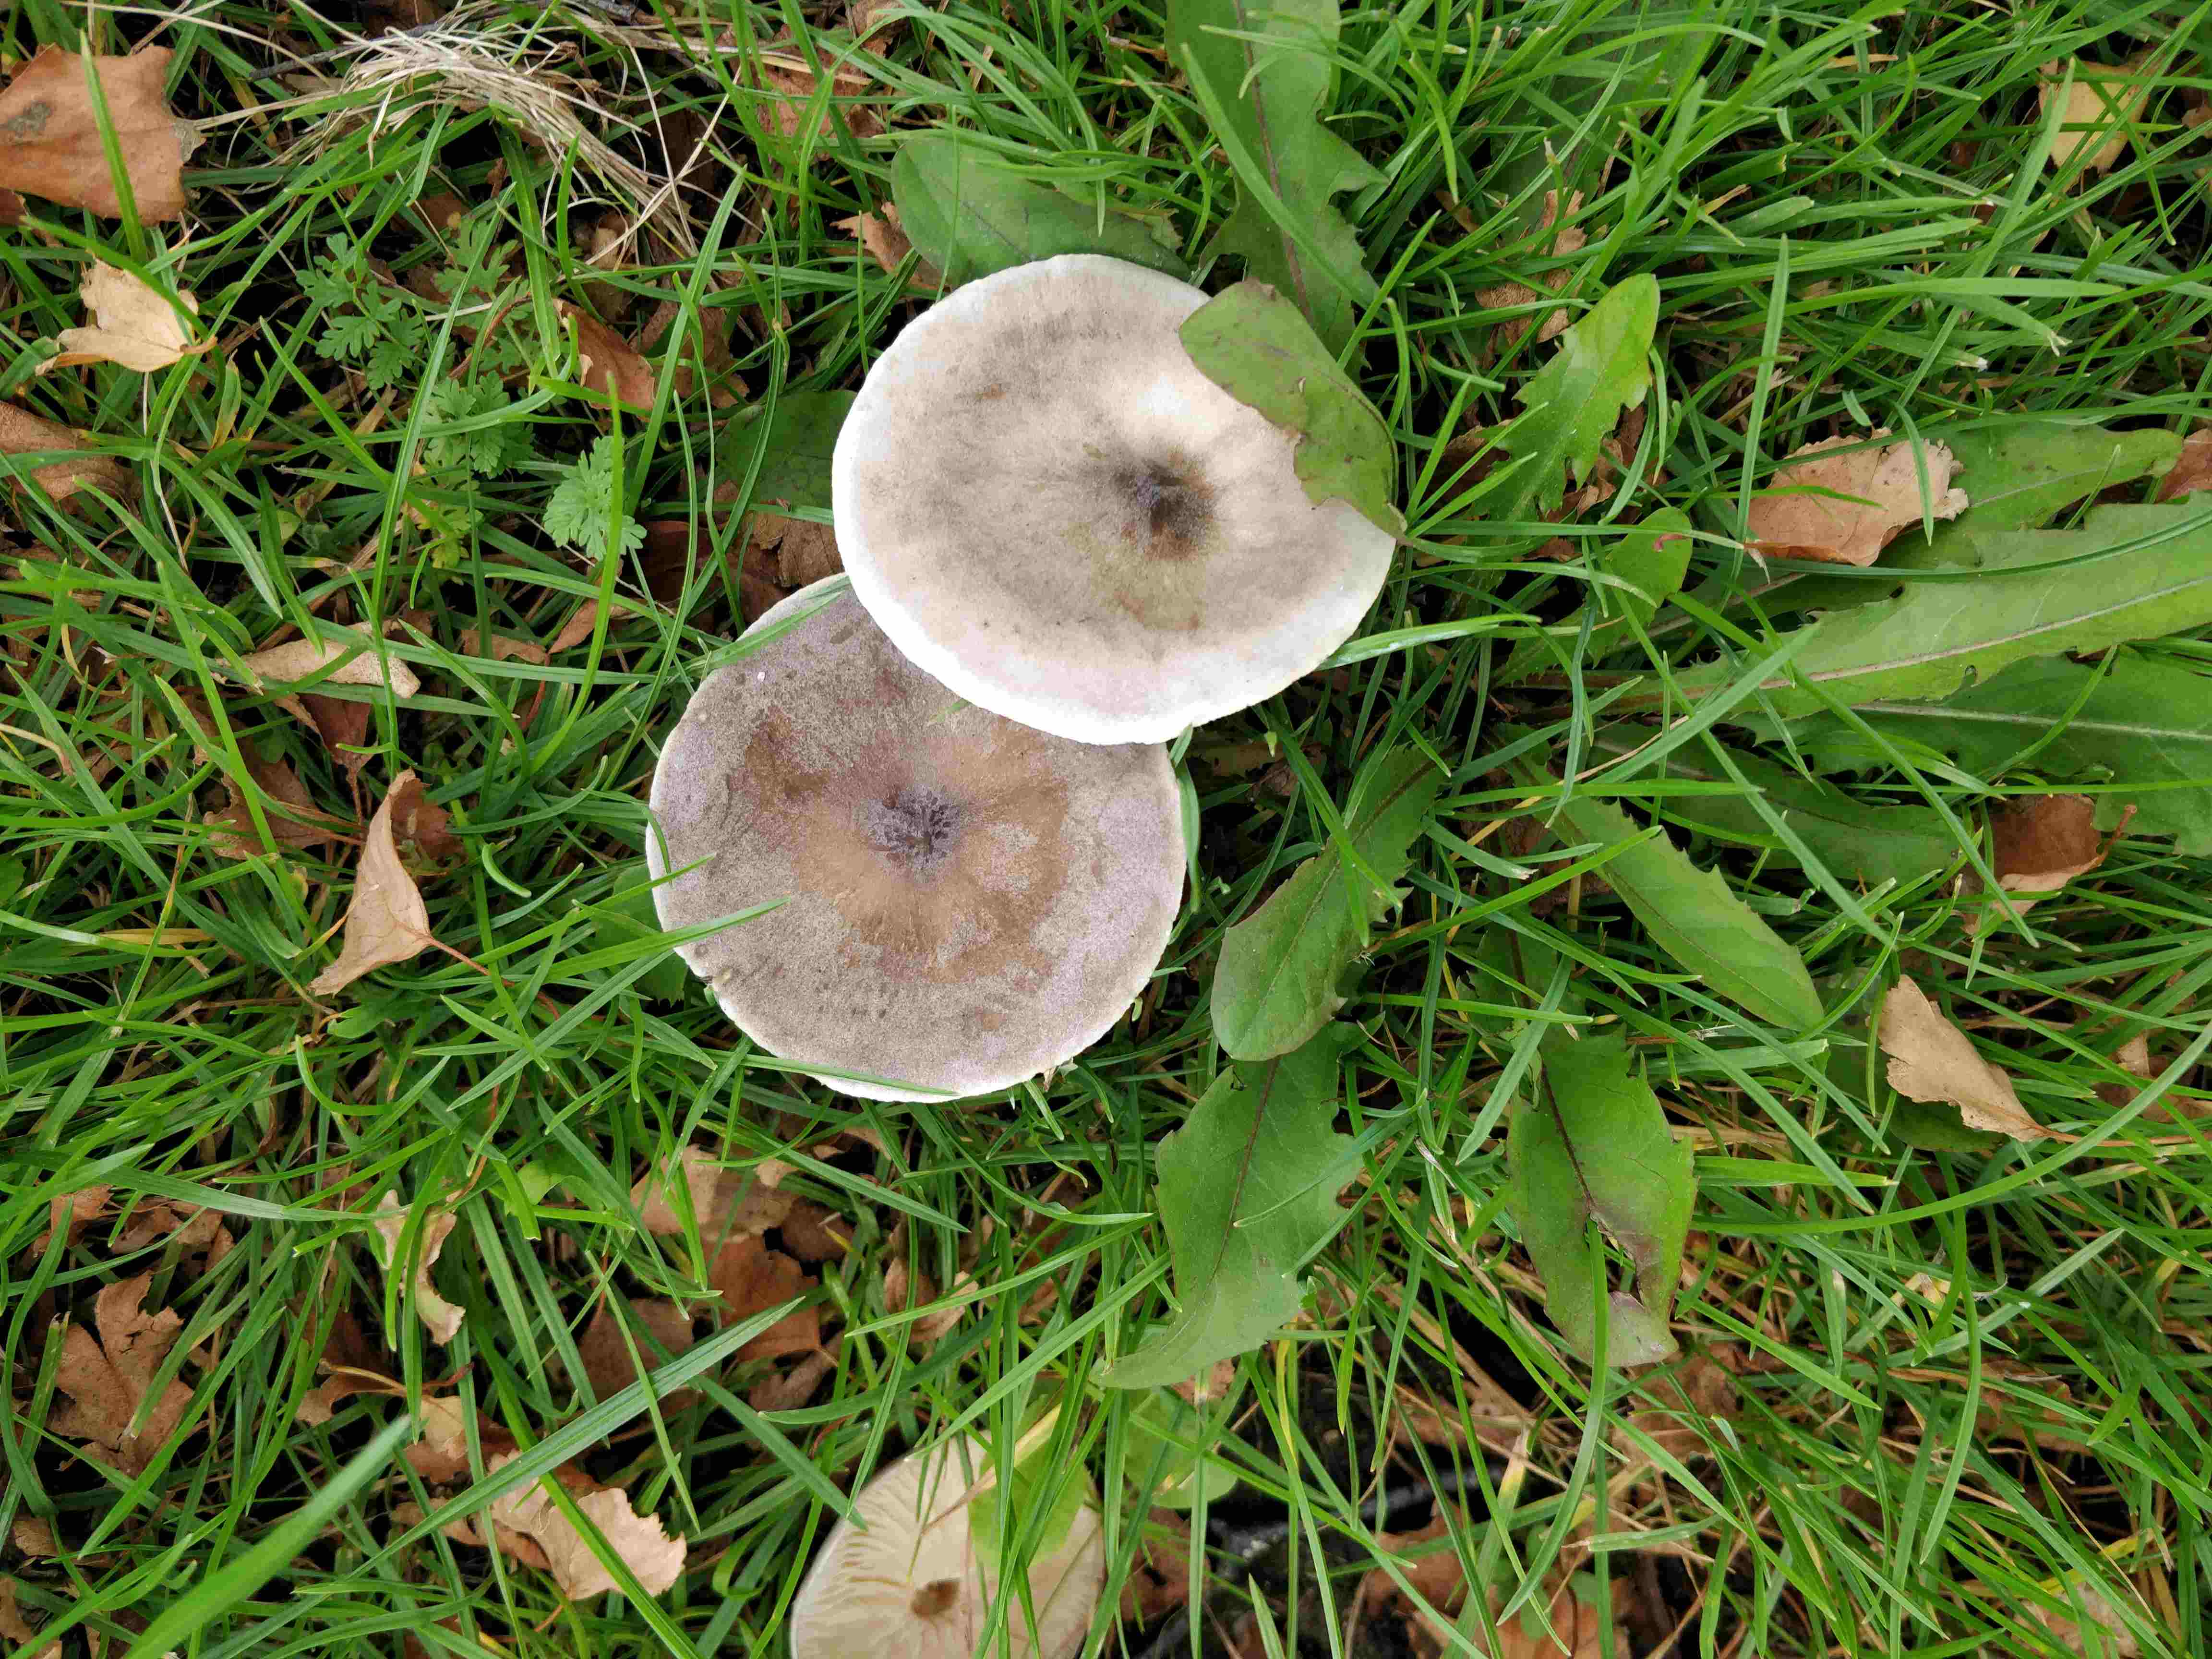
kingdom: Fungi
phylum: Basidiomycota
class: Agaricomycetes
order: Agaricales
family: Tricholomataceae
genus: Melanoleuca
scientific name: Melanoleuca
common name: munkehat
